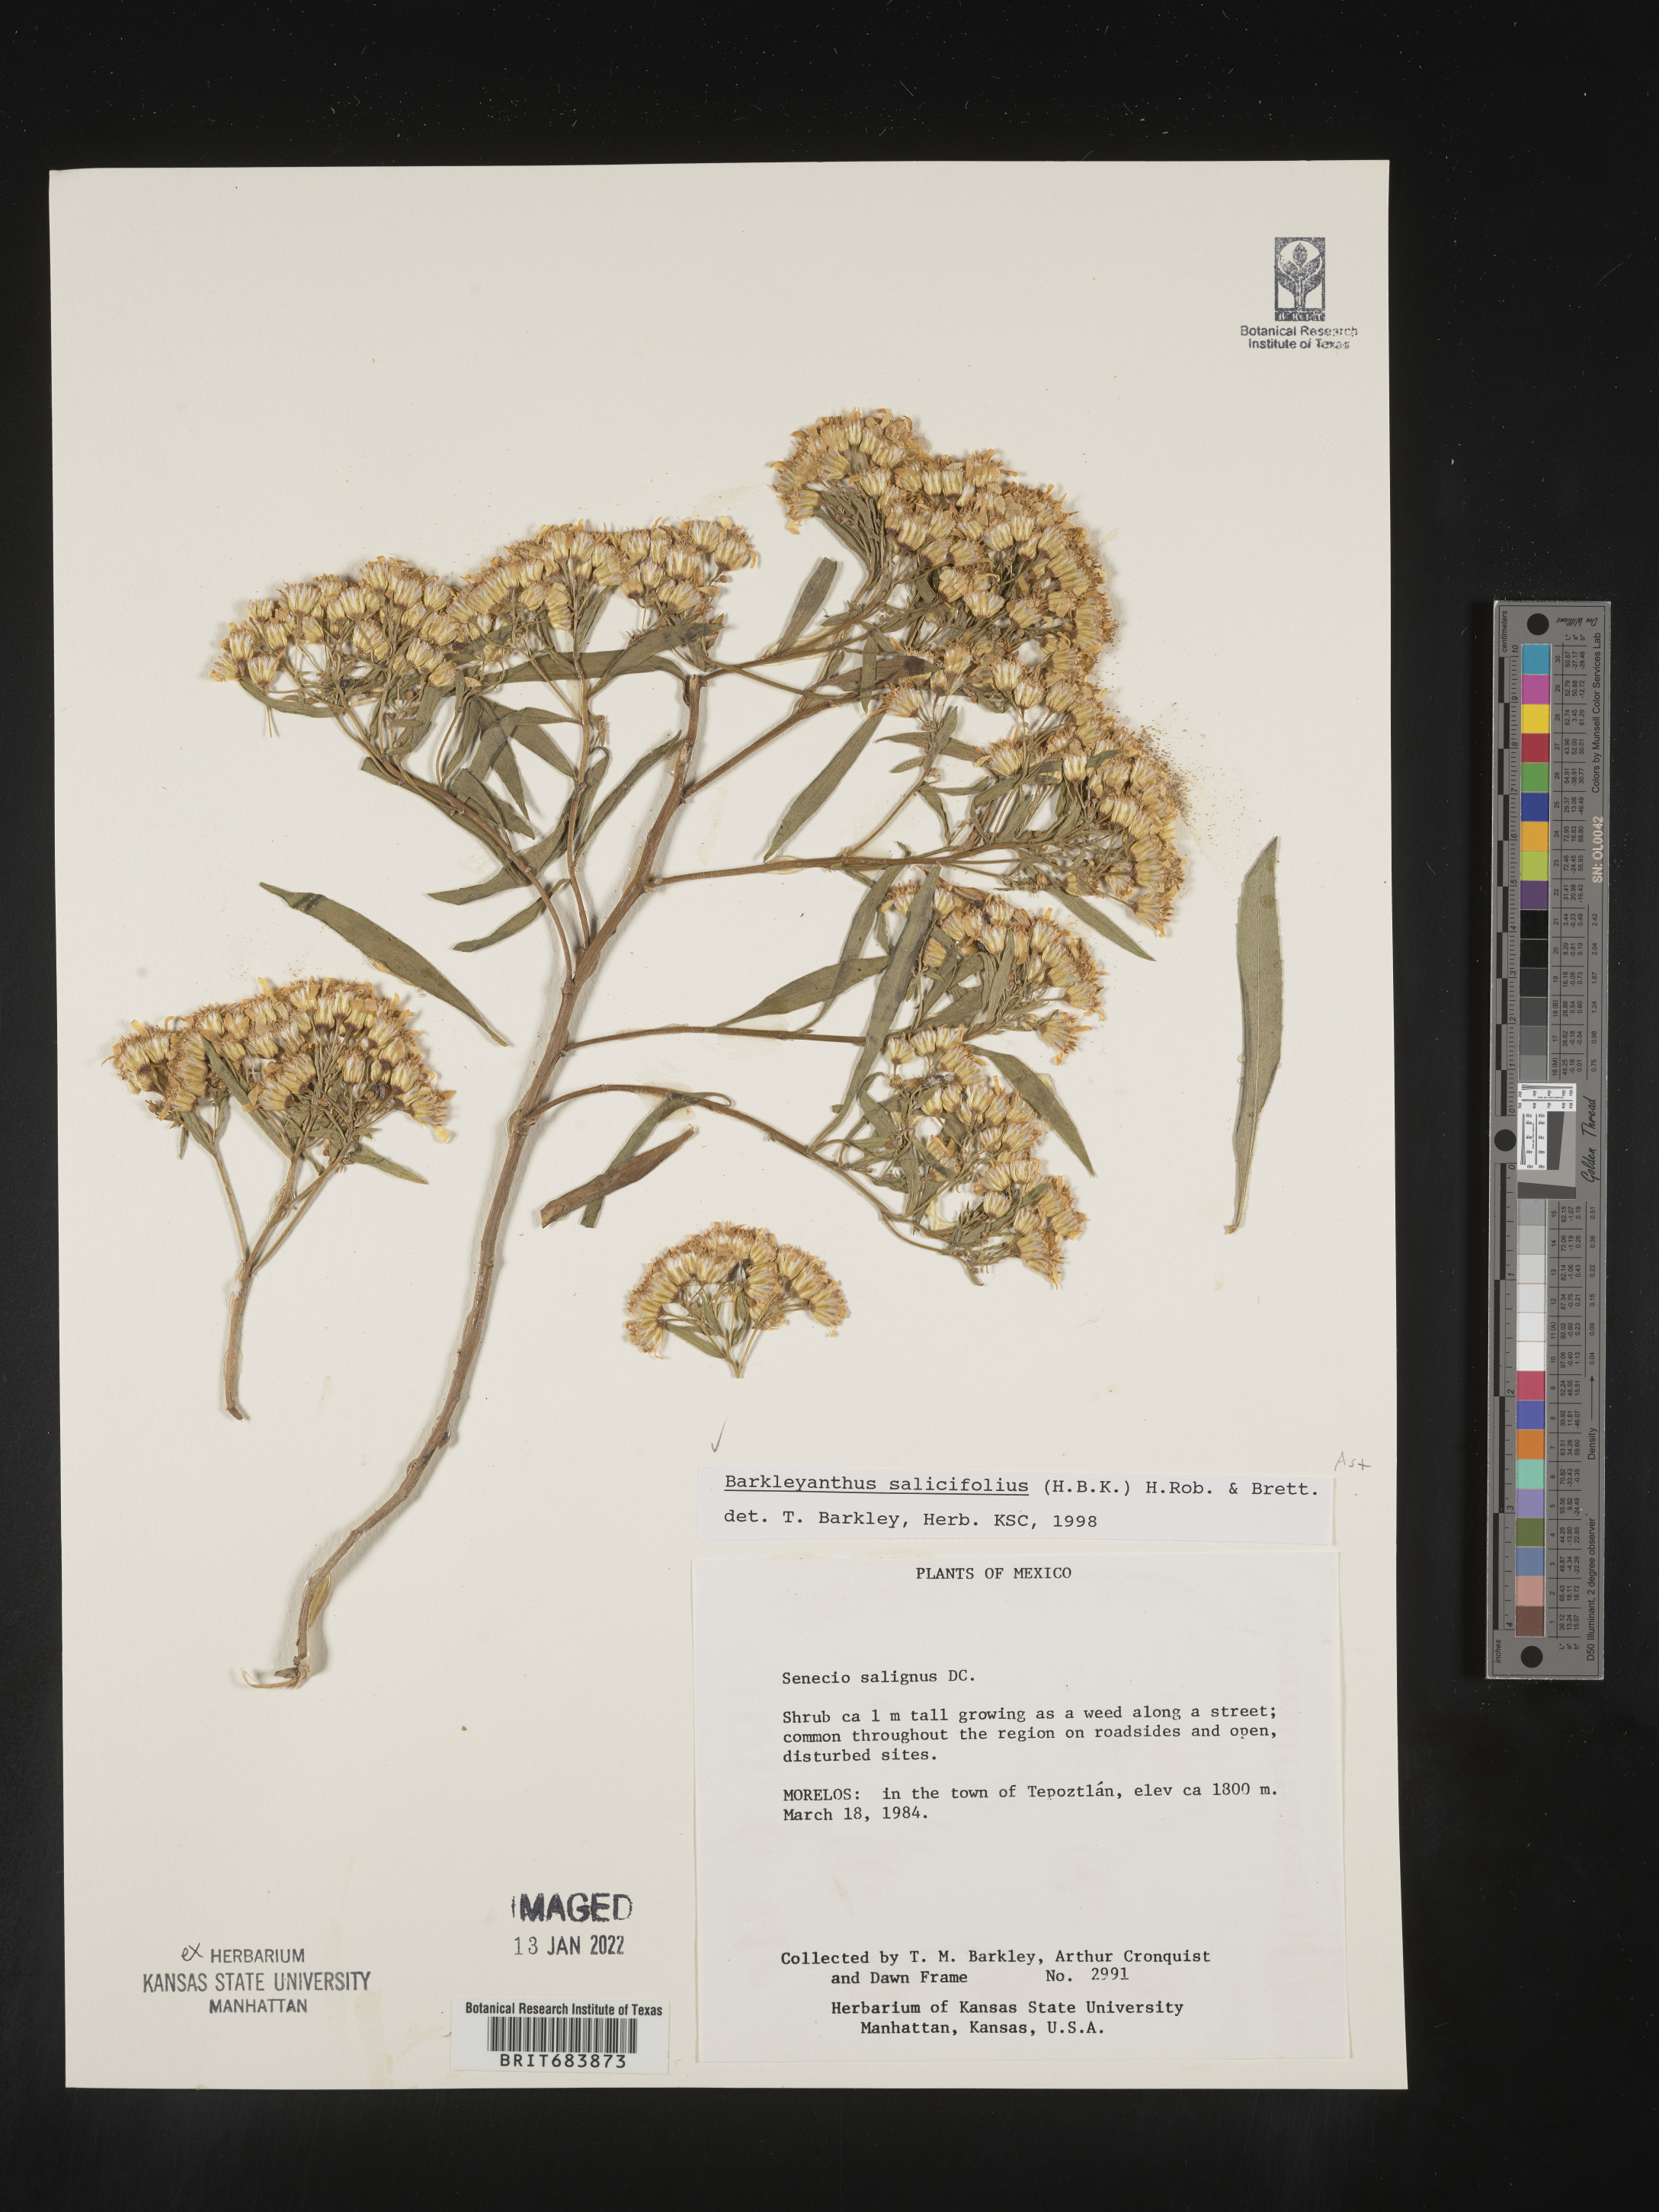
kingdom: Plantae
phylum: Tracheophyta
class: Magnoliopsida
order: Asterales
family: Asteraceae
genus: Barkleyanthus
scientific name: Barkleyanthus
